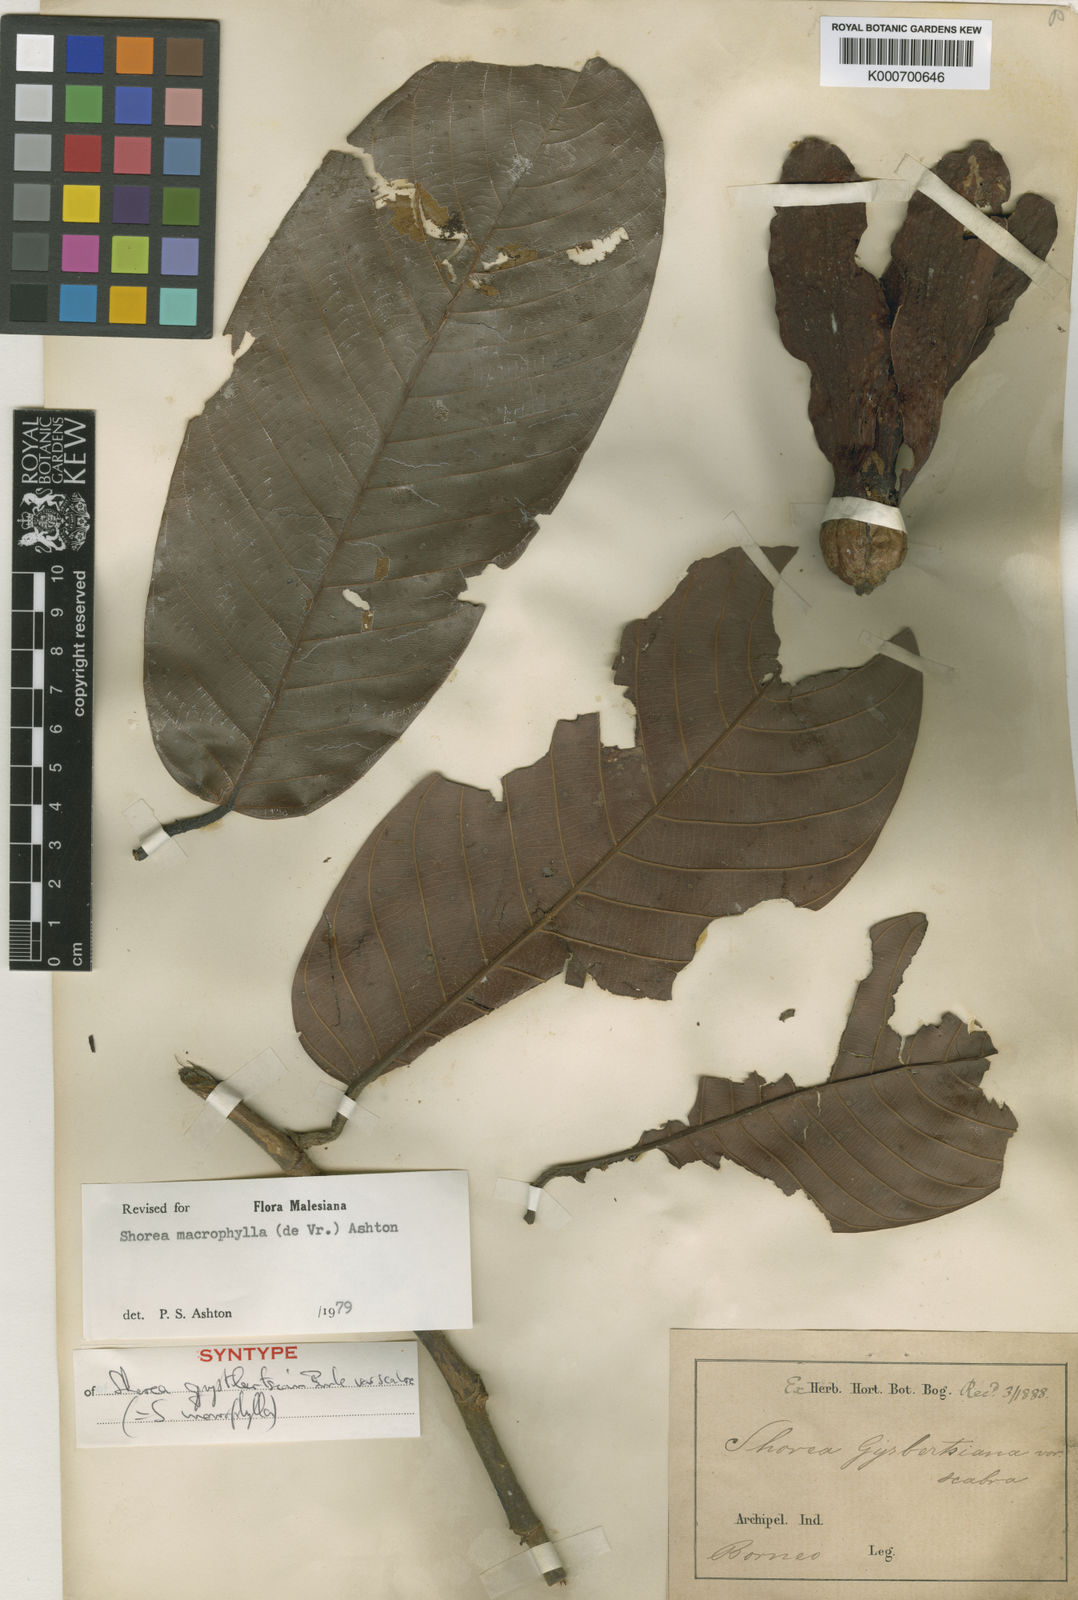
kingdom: Plantae
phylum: Tracheophyta
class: Magnoliopsida
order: Malvales
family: Dipterocarpaceae
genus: Shorea
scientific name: Shorea macrophylla
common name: Light red meranti
